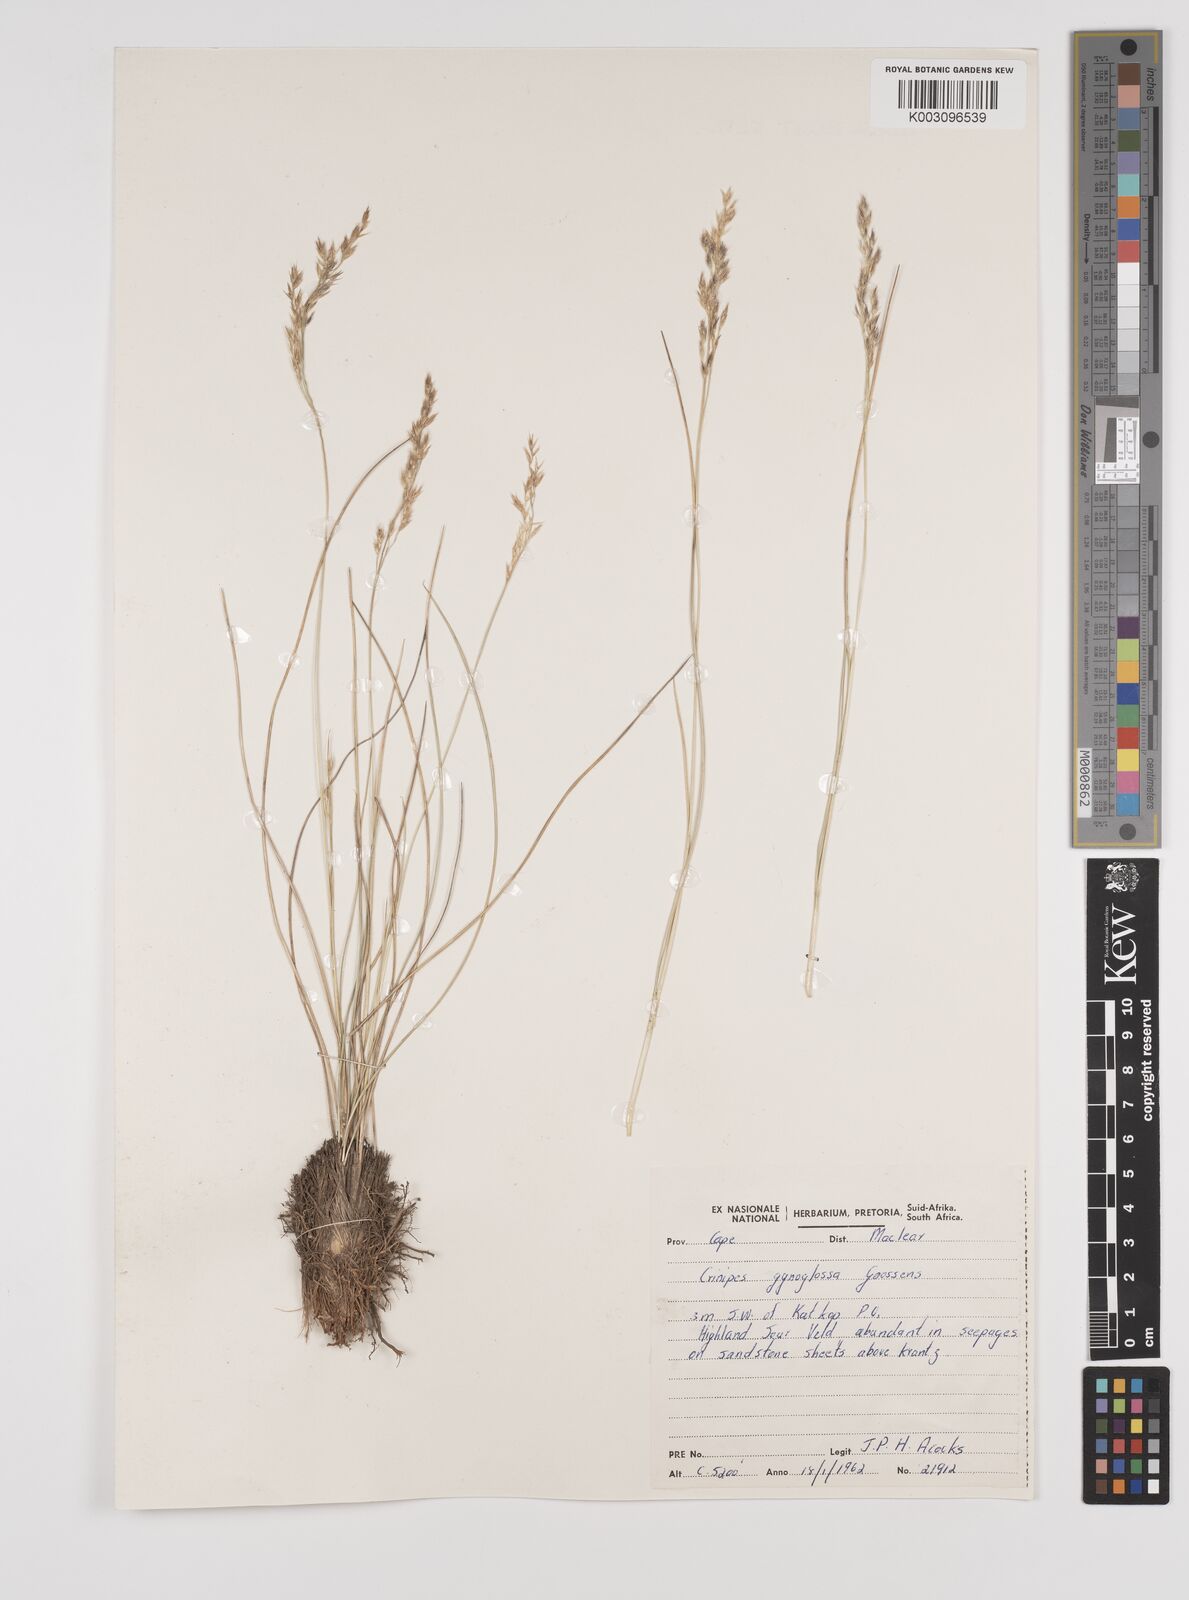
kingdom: Plantae
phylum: Tracheophyta
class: Liliopsida
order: Poales
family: Poaceae
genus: Styppeiochloa
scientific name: Styppeiochloa gynoglossa
